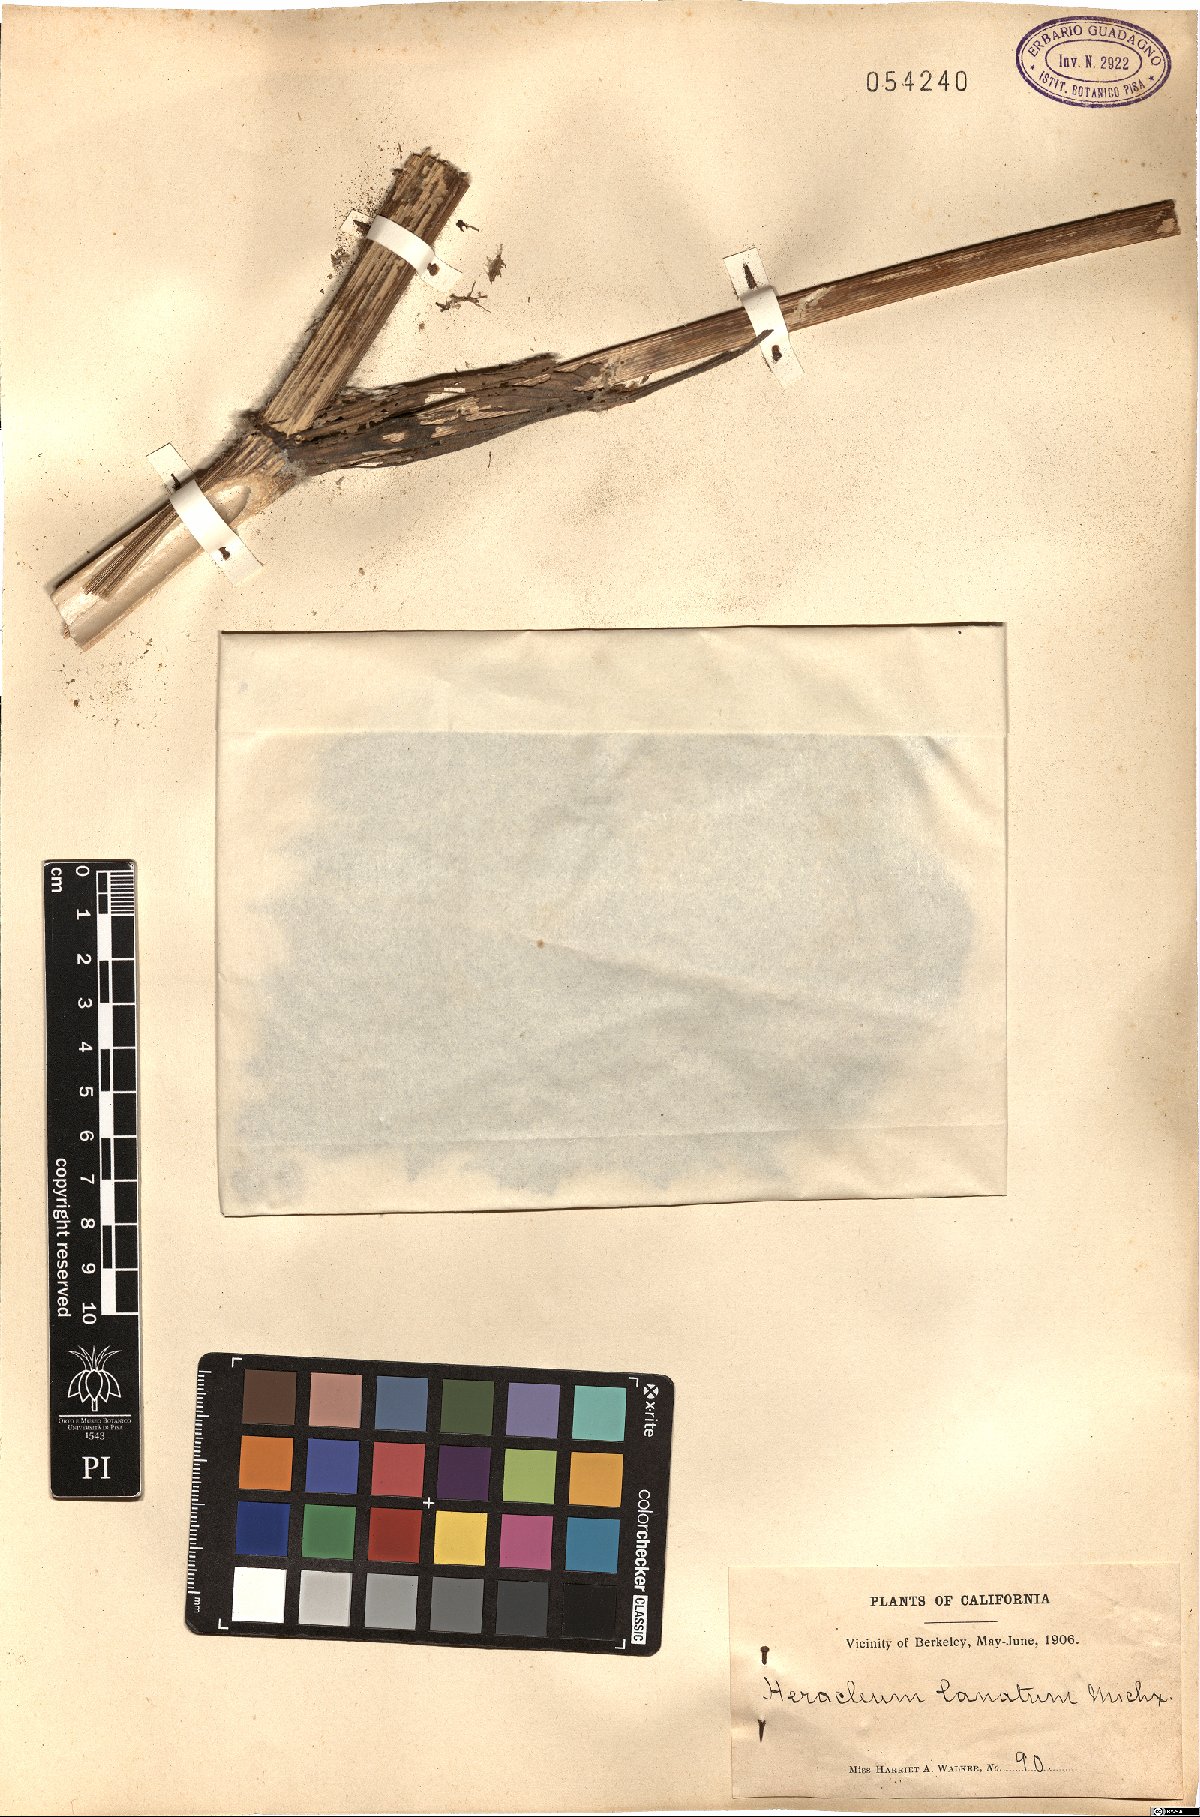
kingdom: Plantae
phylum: Tracheophyta
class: Magnoliopsida
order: Apiales
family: Apiaceae
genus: Heracleum
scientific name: Heracleum maximum
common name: American cow parsnip
